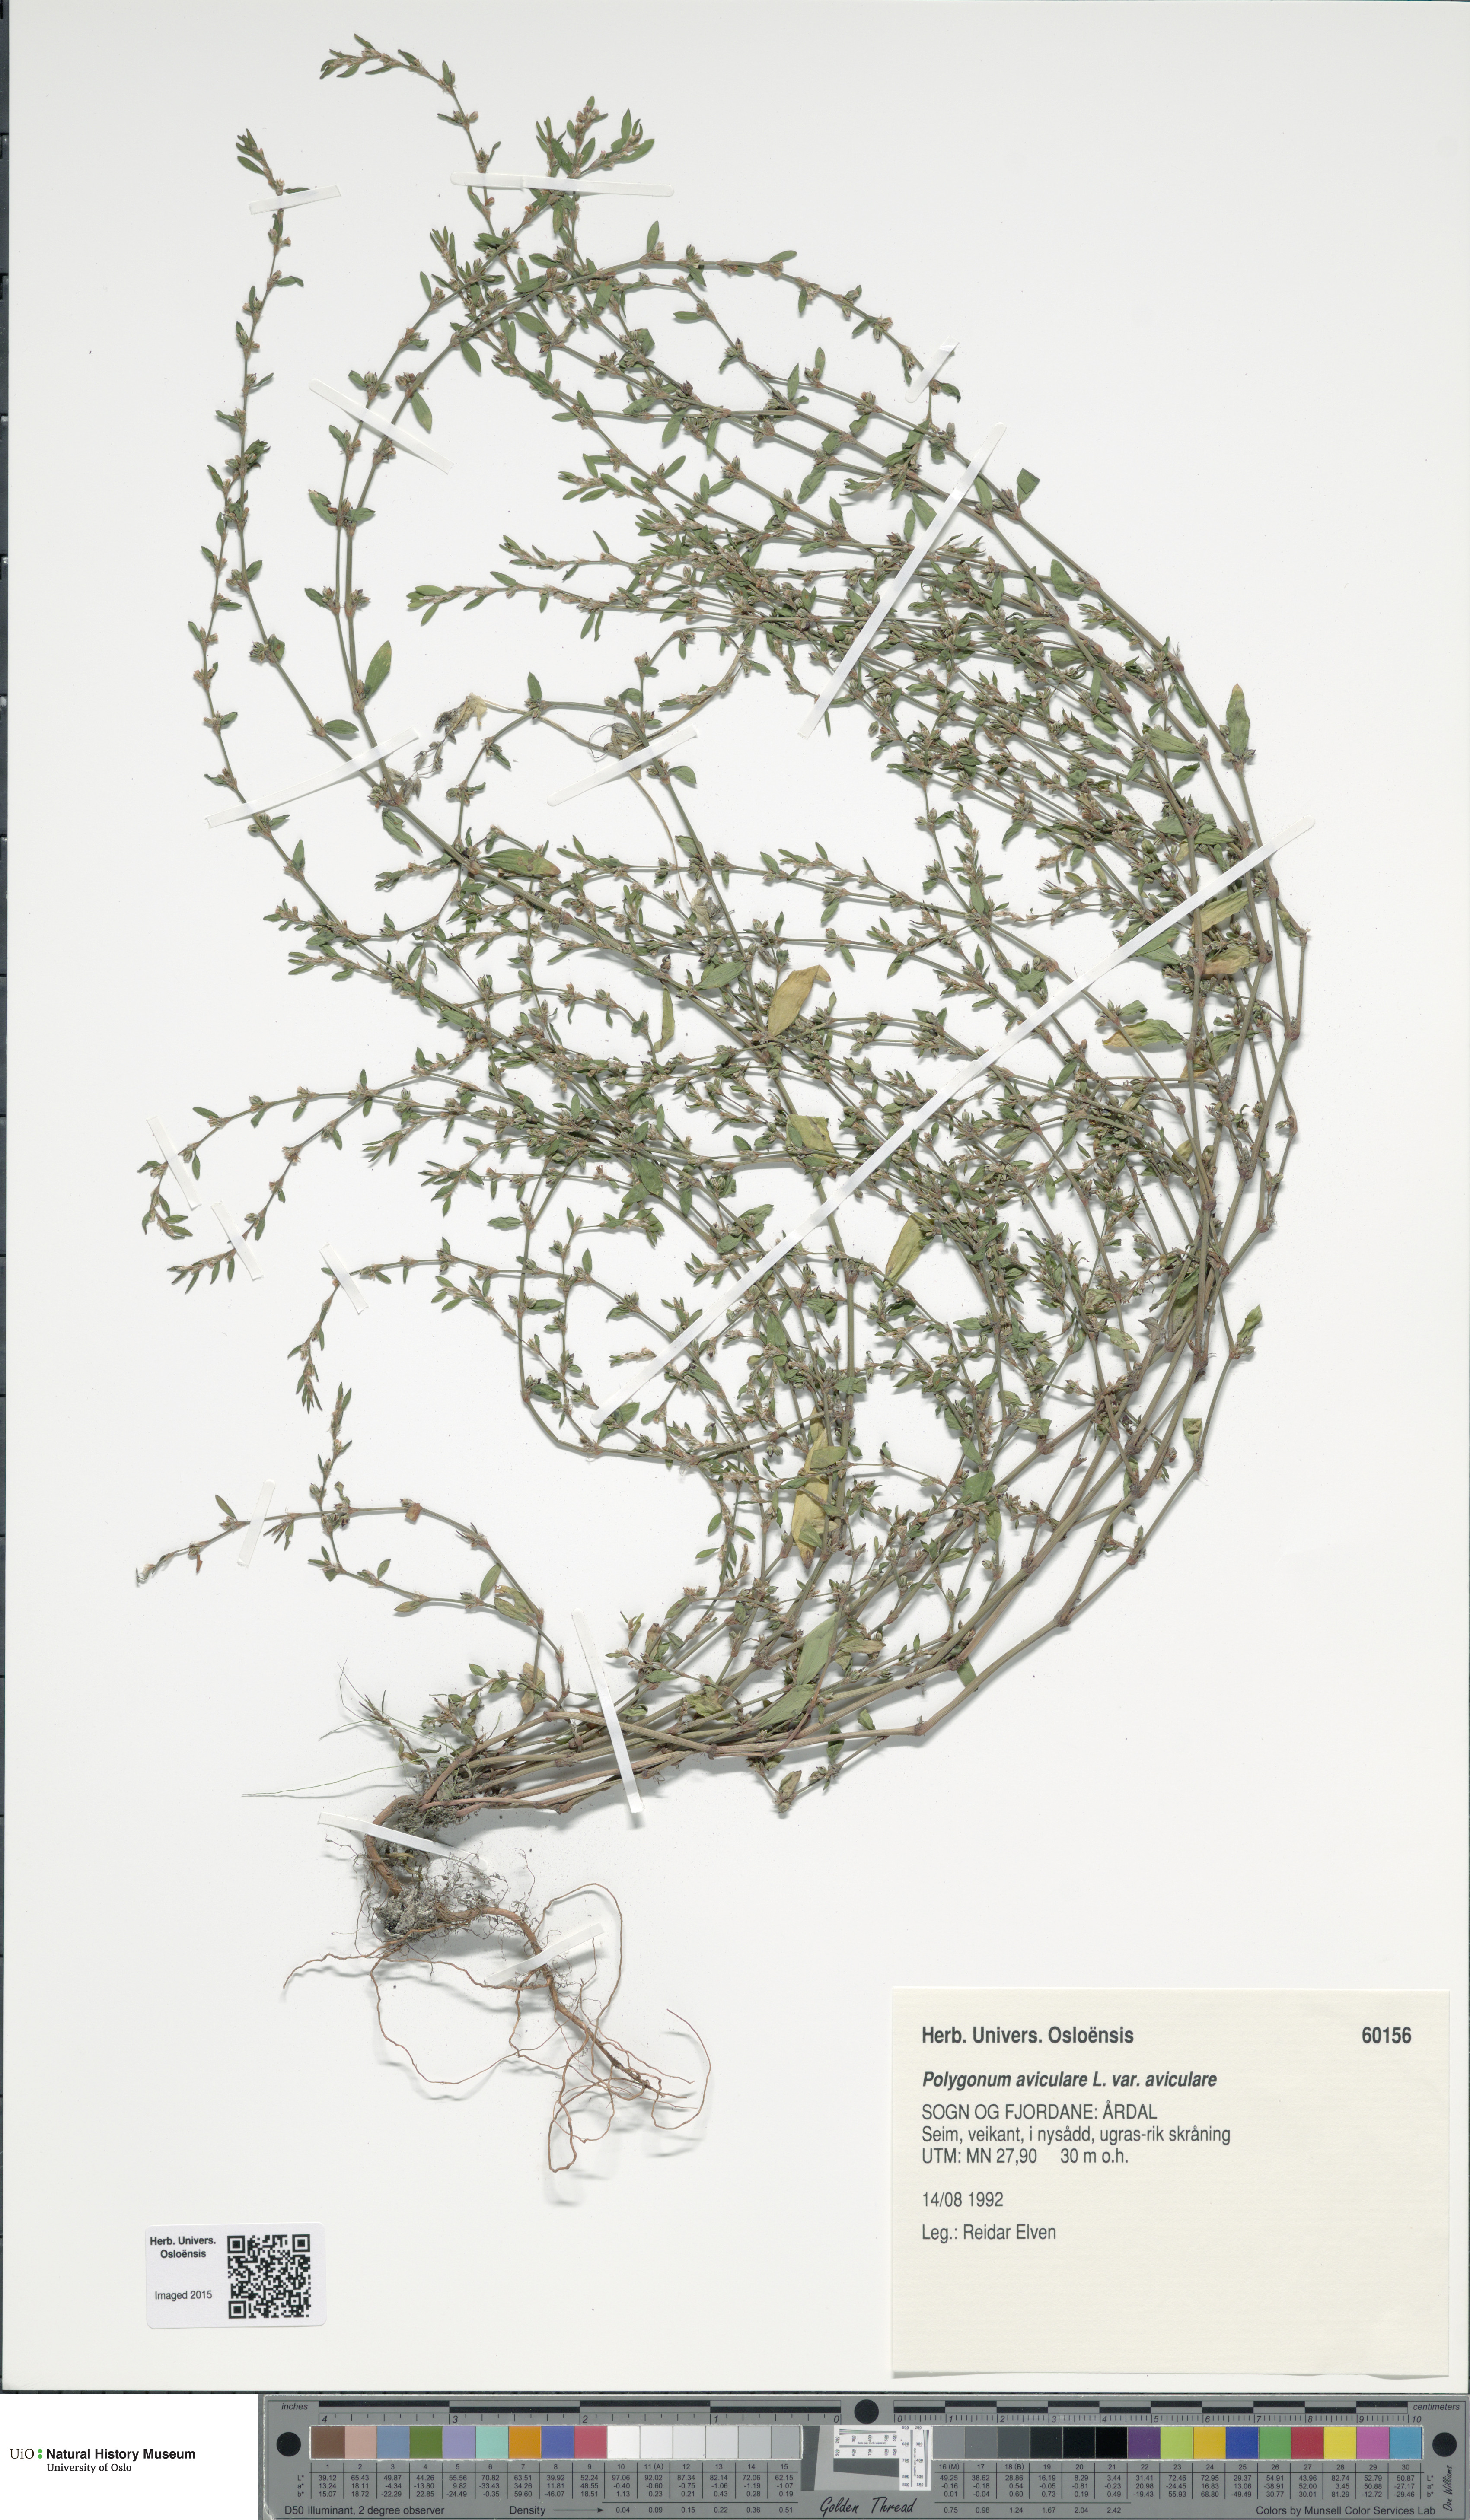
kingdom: Plantae
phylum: Tracheophyta
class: Magnoliopsida
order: Caryophyllales
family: Polygonaceae
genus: Polygonum
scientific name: Polygonum aviculare
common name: Prostrate knotweed
